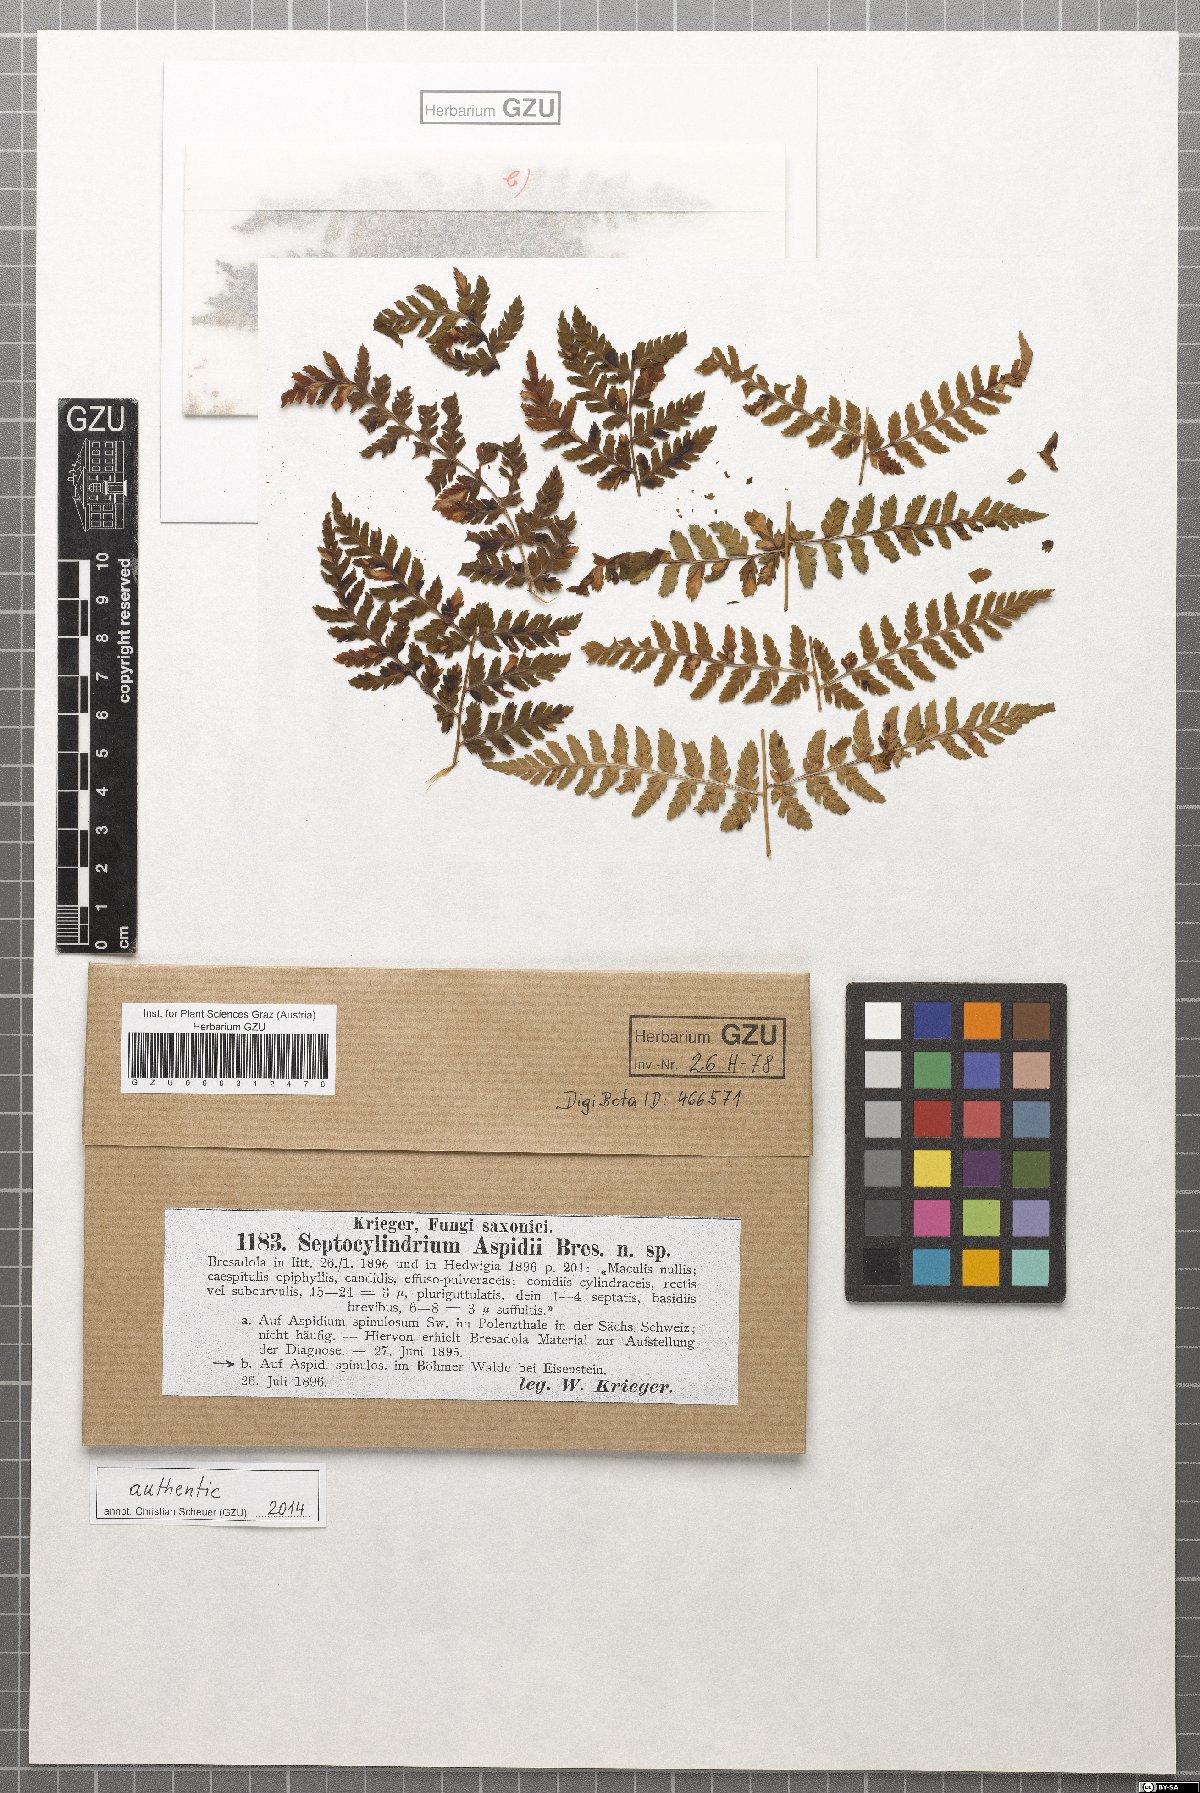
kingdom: Fungi
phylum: Ascomycota
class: Dothideomycetes
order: Mycosphaerellales
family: Mycosphaerellaceae
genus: Pseudocercosporella
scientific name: Pseudocercosporella aspidii
